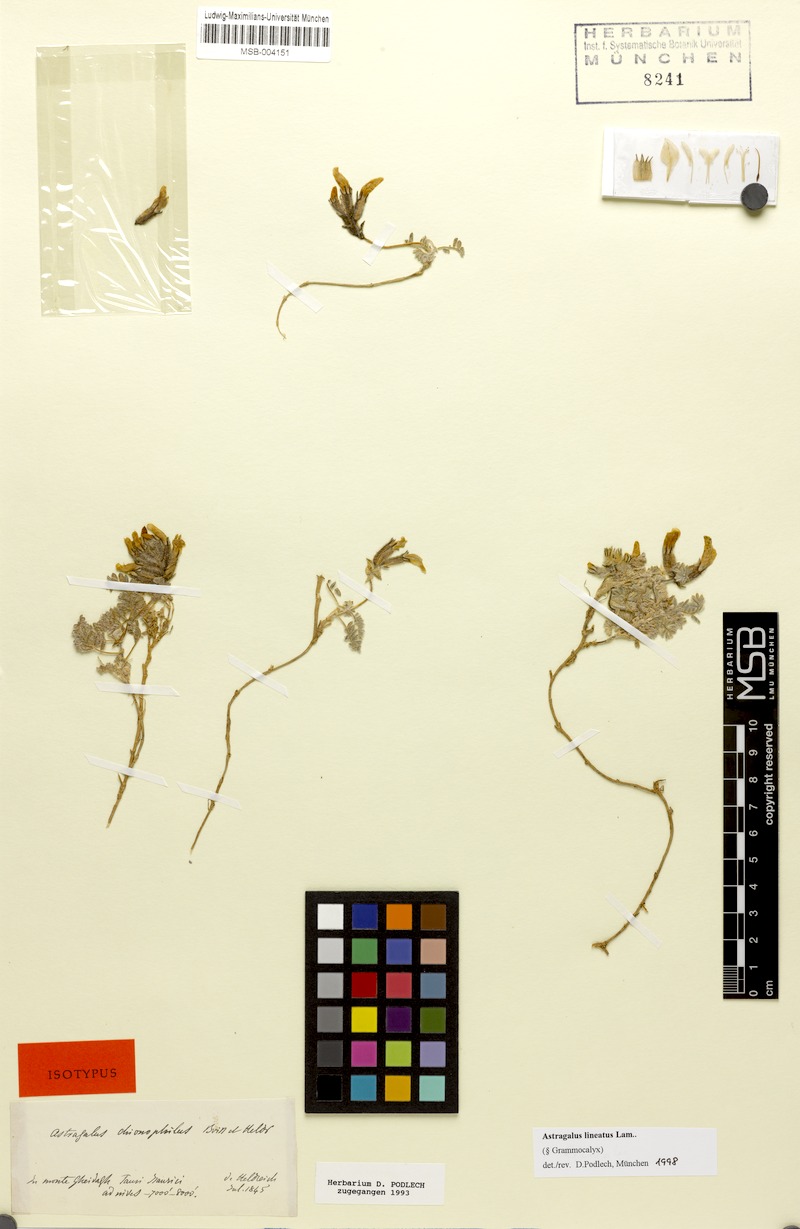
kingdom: Plantae
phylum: Tracheophyta
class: Magnoliopsida
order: Fabales
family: Fabaceae
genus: Astragalus
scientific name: Astragalus lineatus
